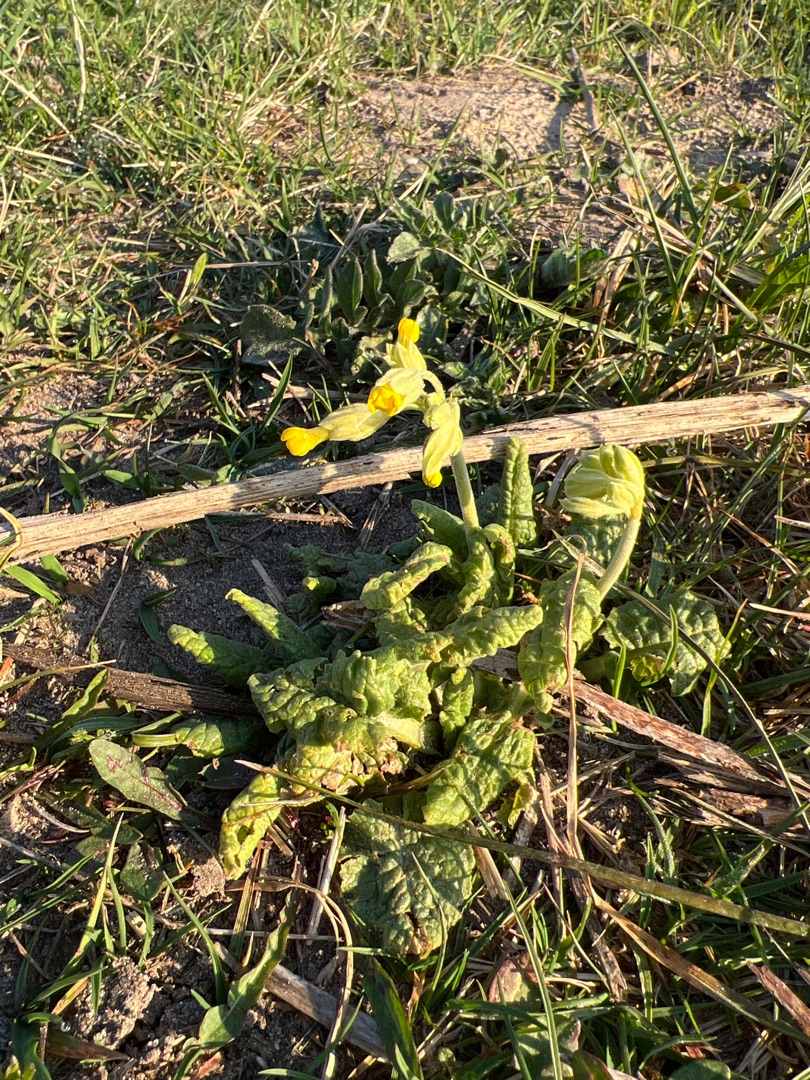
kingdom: Plantae
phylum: Tracheophyta
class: Magnoliopsida
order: Ericales
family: Primulaceae
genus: Primula
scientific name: Primula veris
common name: Hulkravet kodriver
